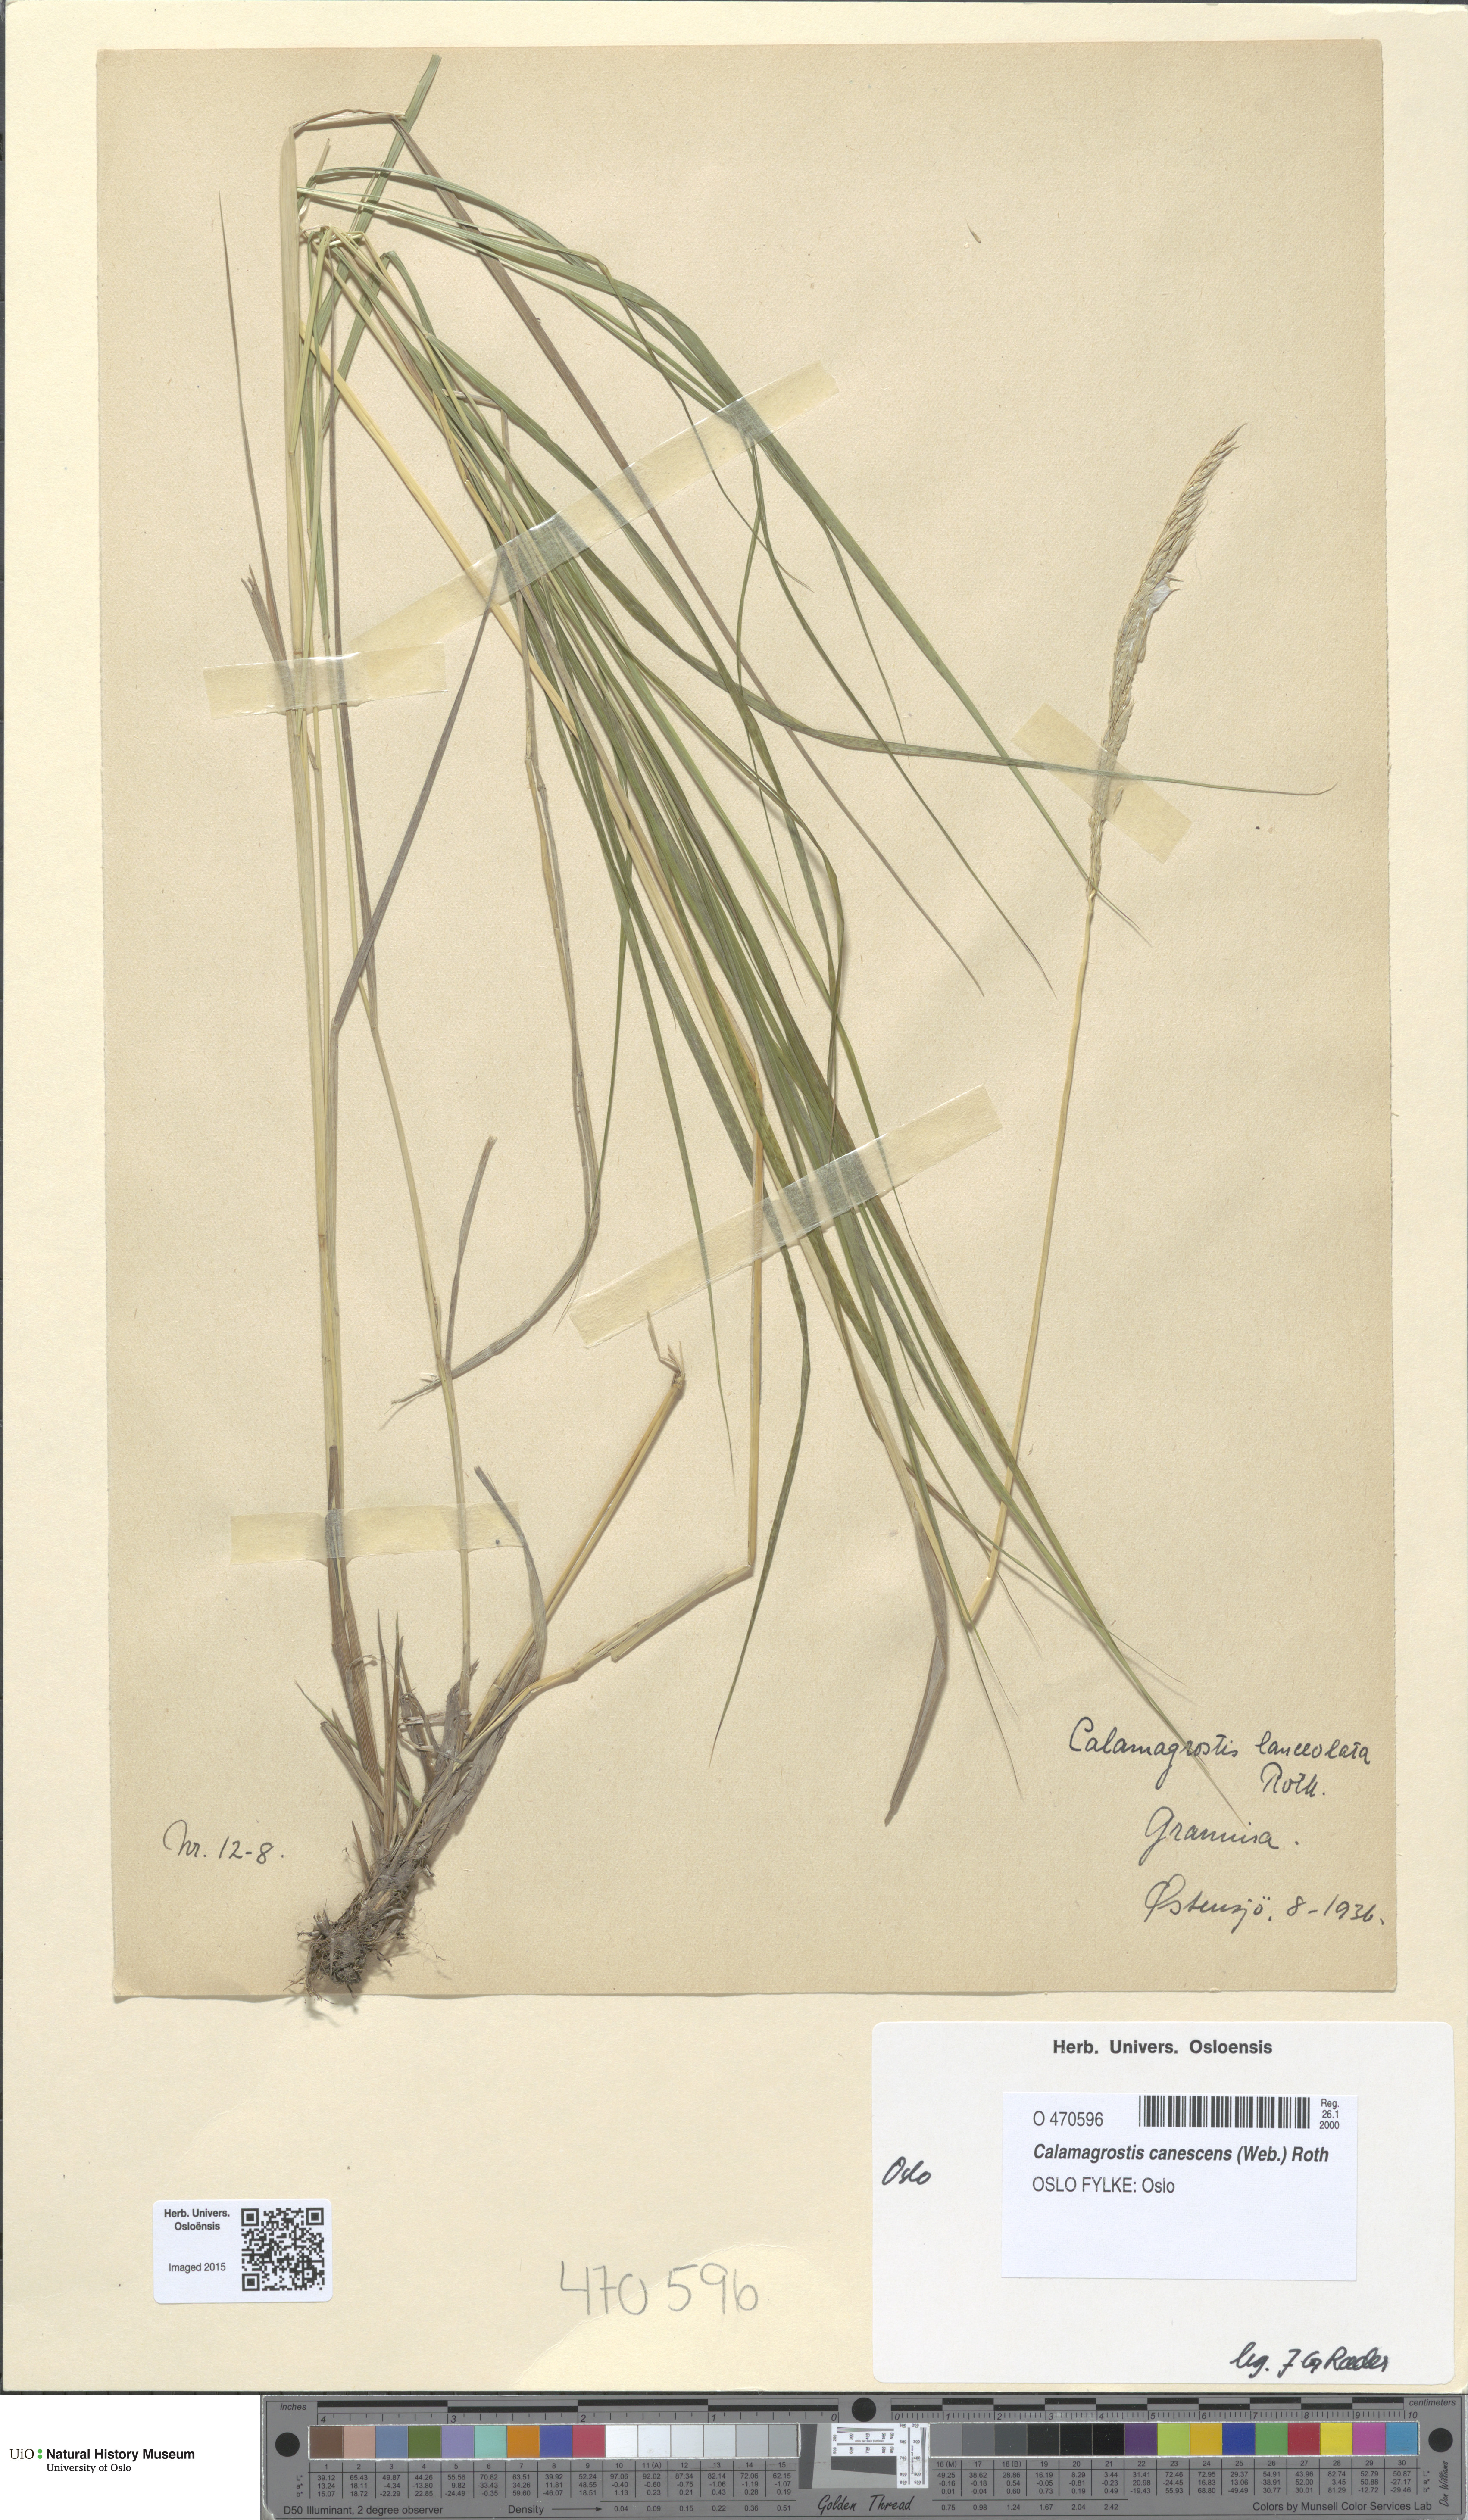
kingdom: Plantae
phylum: Tracheophyta
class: Liliopsida
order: Poales
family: Poaceae
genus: Calamagrostis
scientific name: Calamagrostis canescens
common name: Purple small-reed
